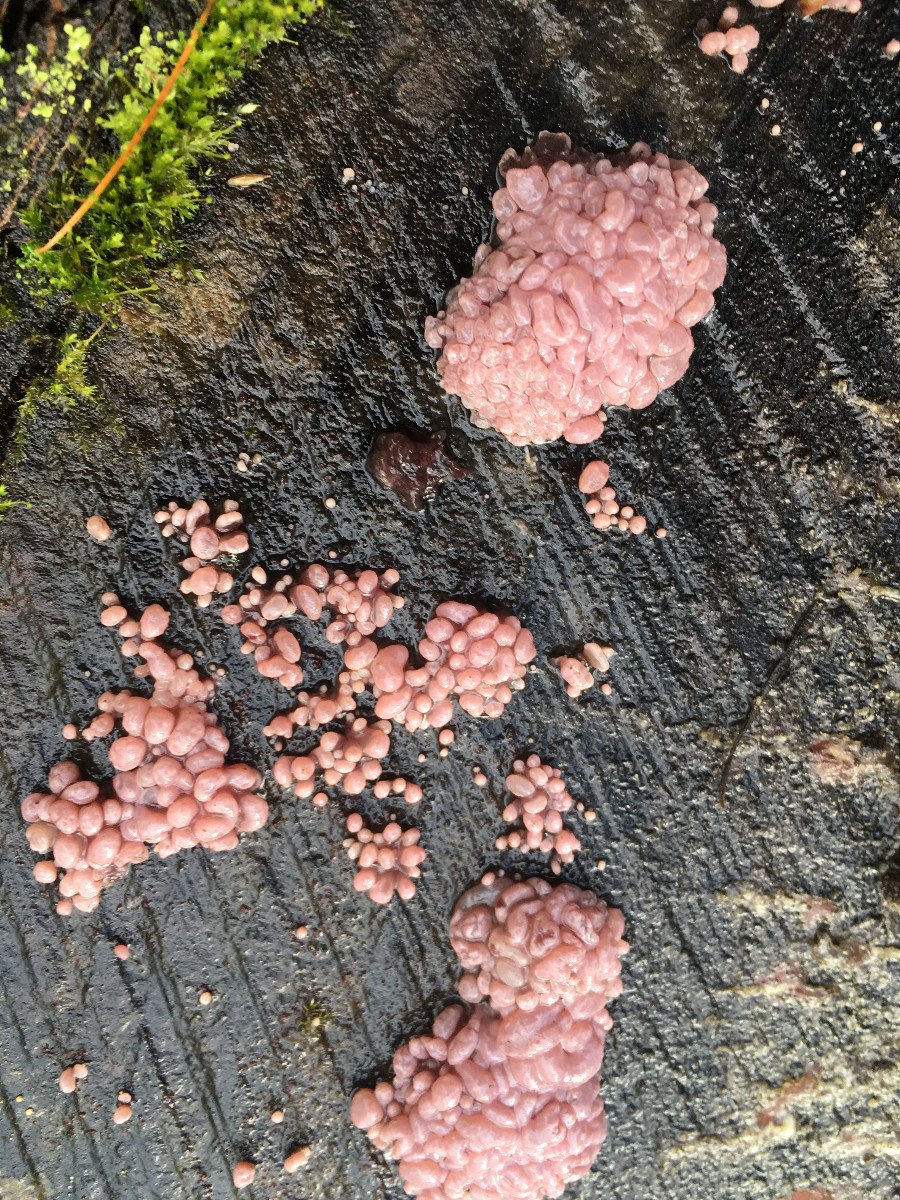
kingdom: Fungi
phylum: Ascomycota
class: Leotiomycetes
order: Helotiales
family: Gelatinodiscaceae
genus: Ascocoryne
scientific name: Ascocoryne sarcoides
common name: rødlilla sejskive
